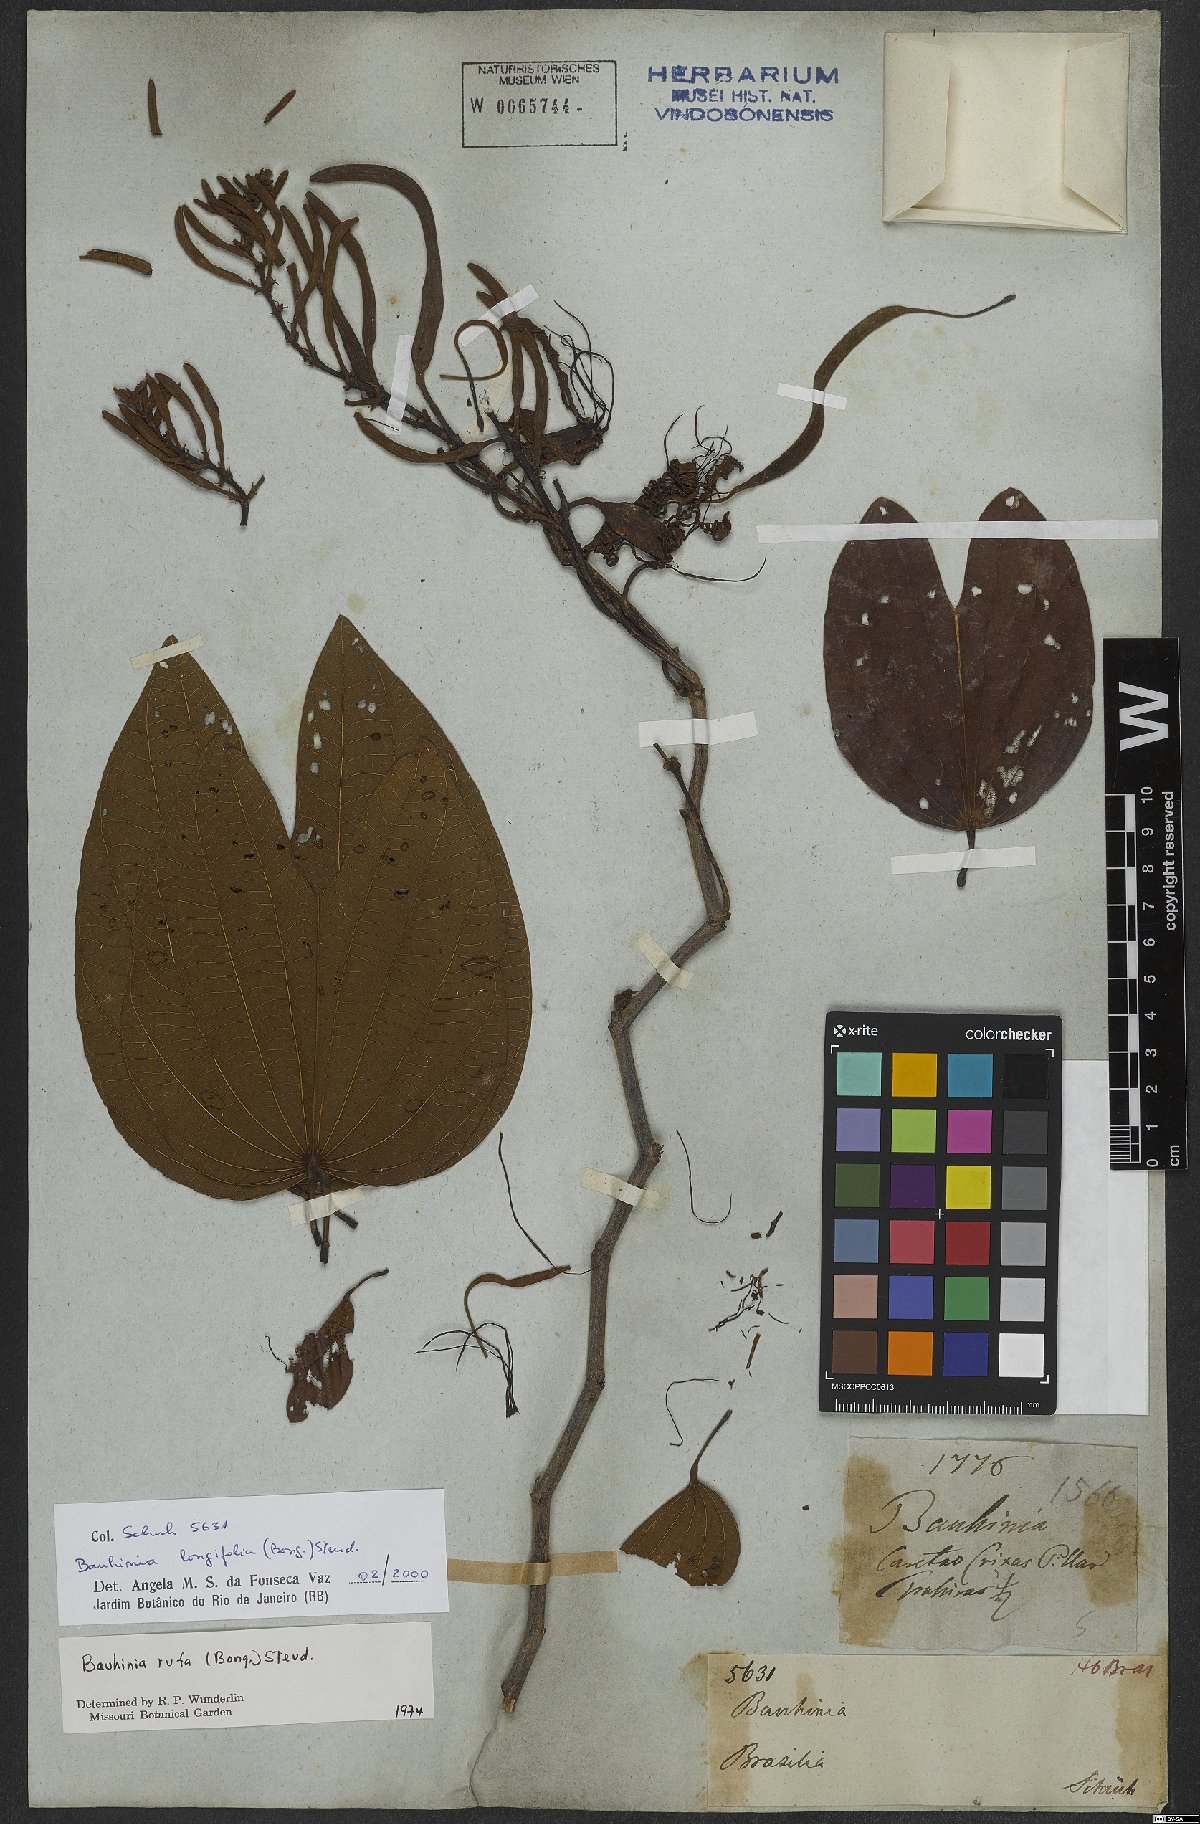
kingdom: Plantae
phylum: Tracheophyta
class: Magnoliopsida
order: Fabales
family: Fabaceae
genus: Bauhinia
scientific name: Bauhinia longifolia
